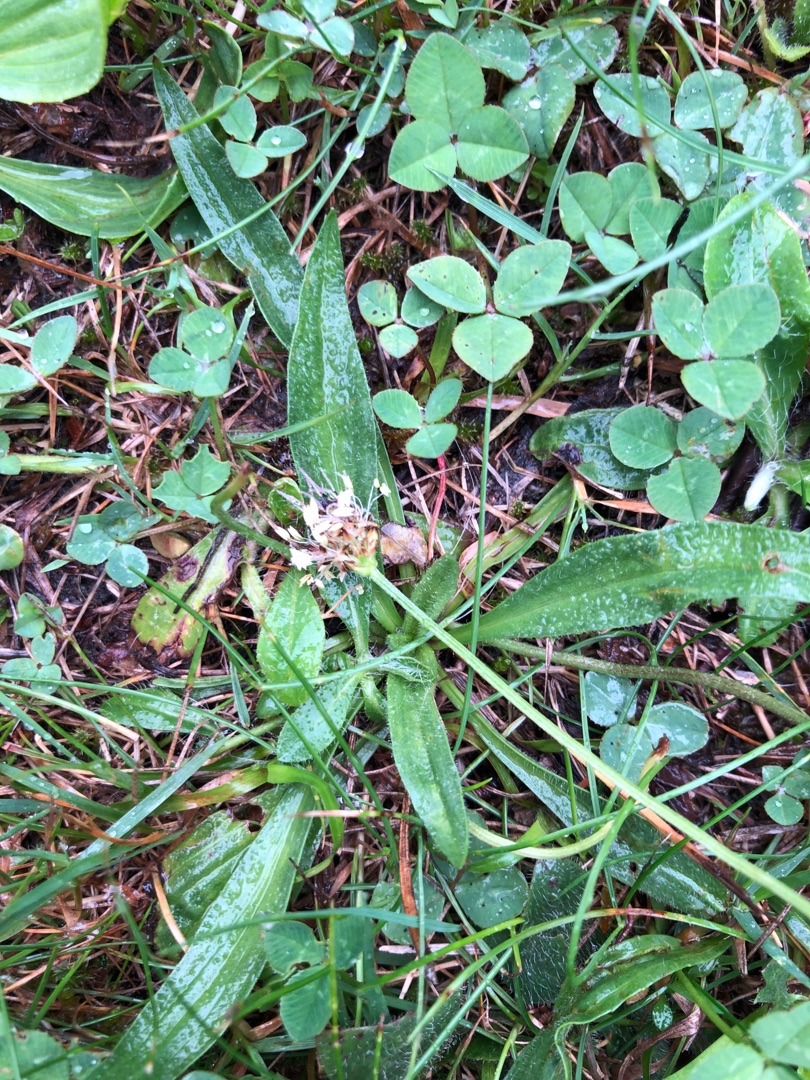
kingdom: Plantae
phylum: Tracheophyta
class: Magnoliopsida
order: Lamiales
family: Plantaginaceae
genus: Plantago
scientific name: Plantago lanceolata
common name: Lancet-vejbred
